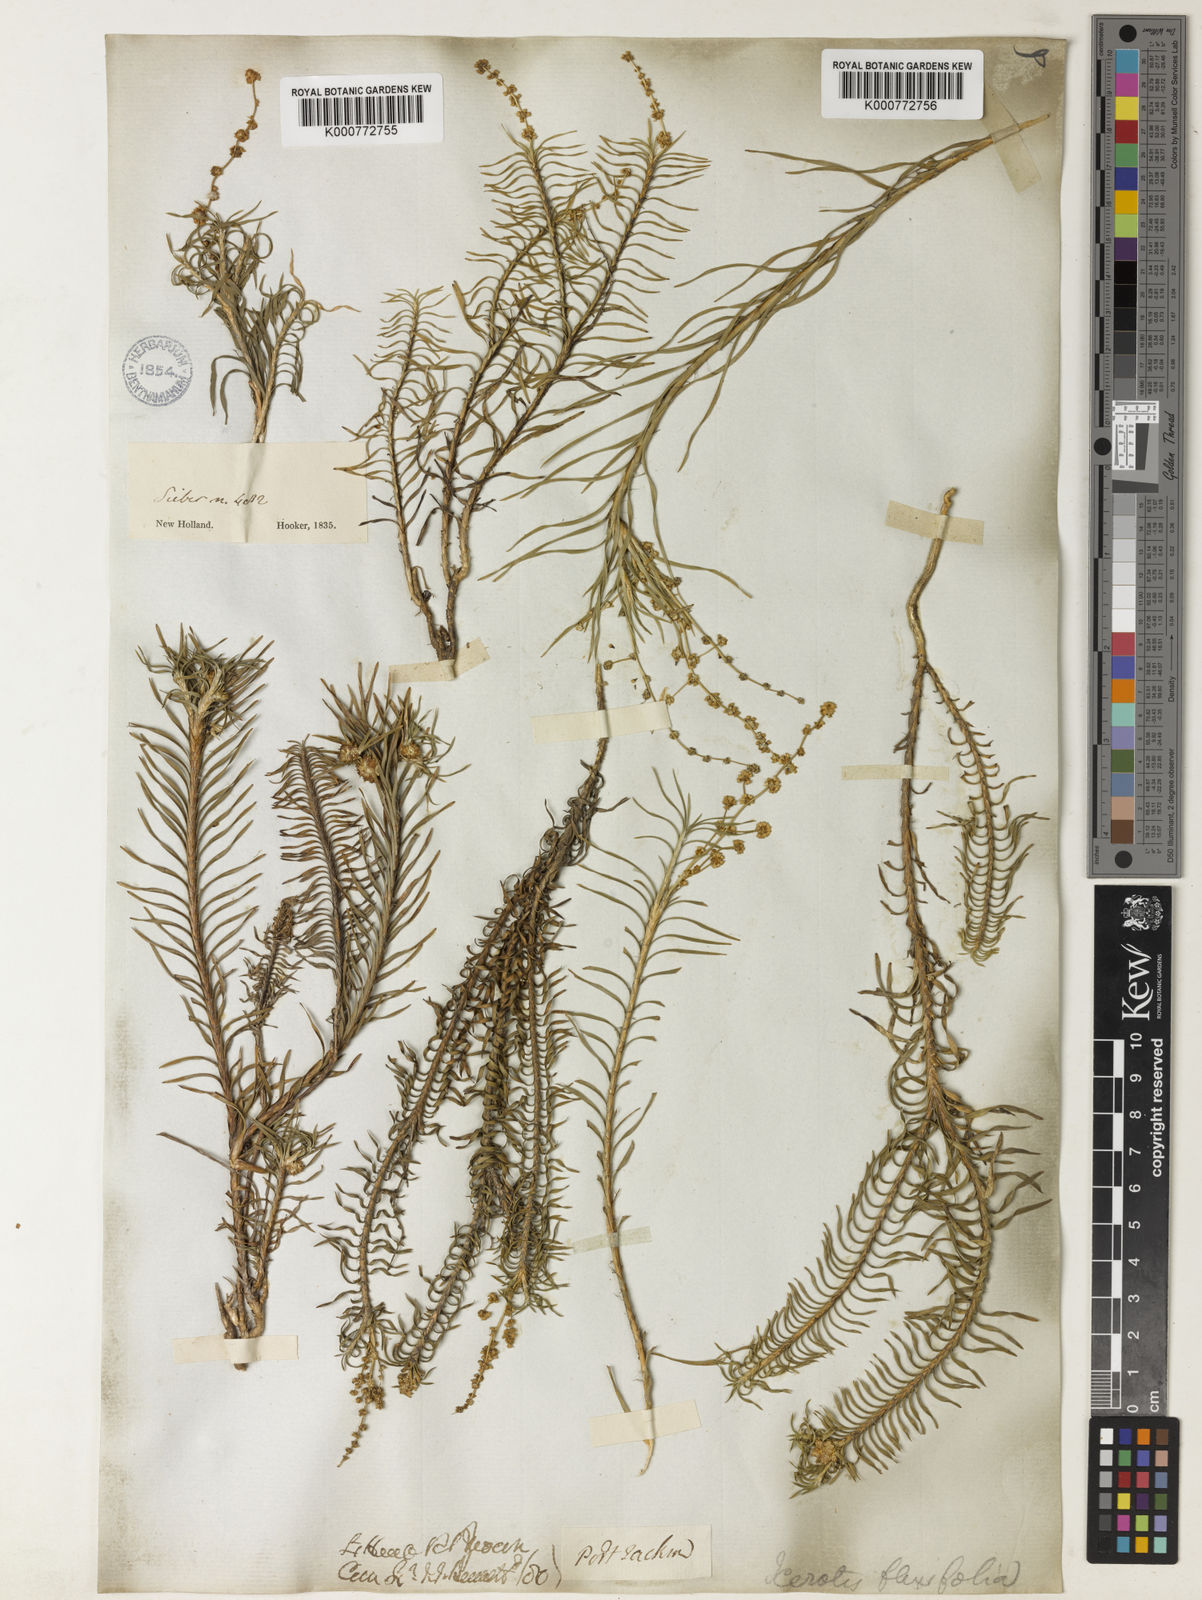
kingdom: Plantae
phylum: Tracheophyta
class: Liliopsida
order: Asparagales
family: Asparagaceae
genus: Lomandra
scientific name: Lomandra obliqua
